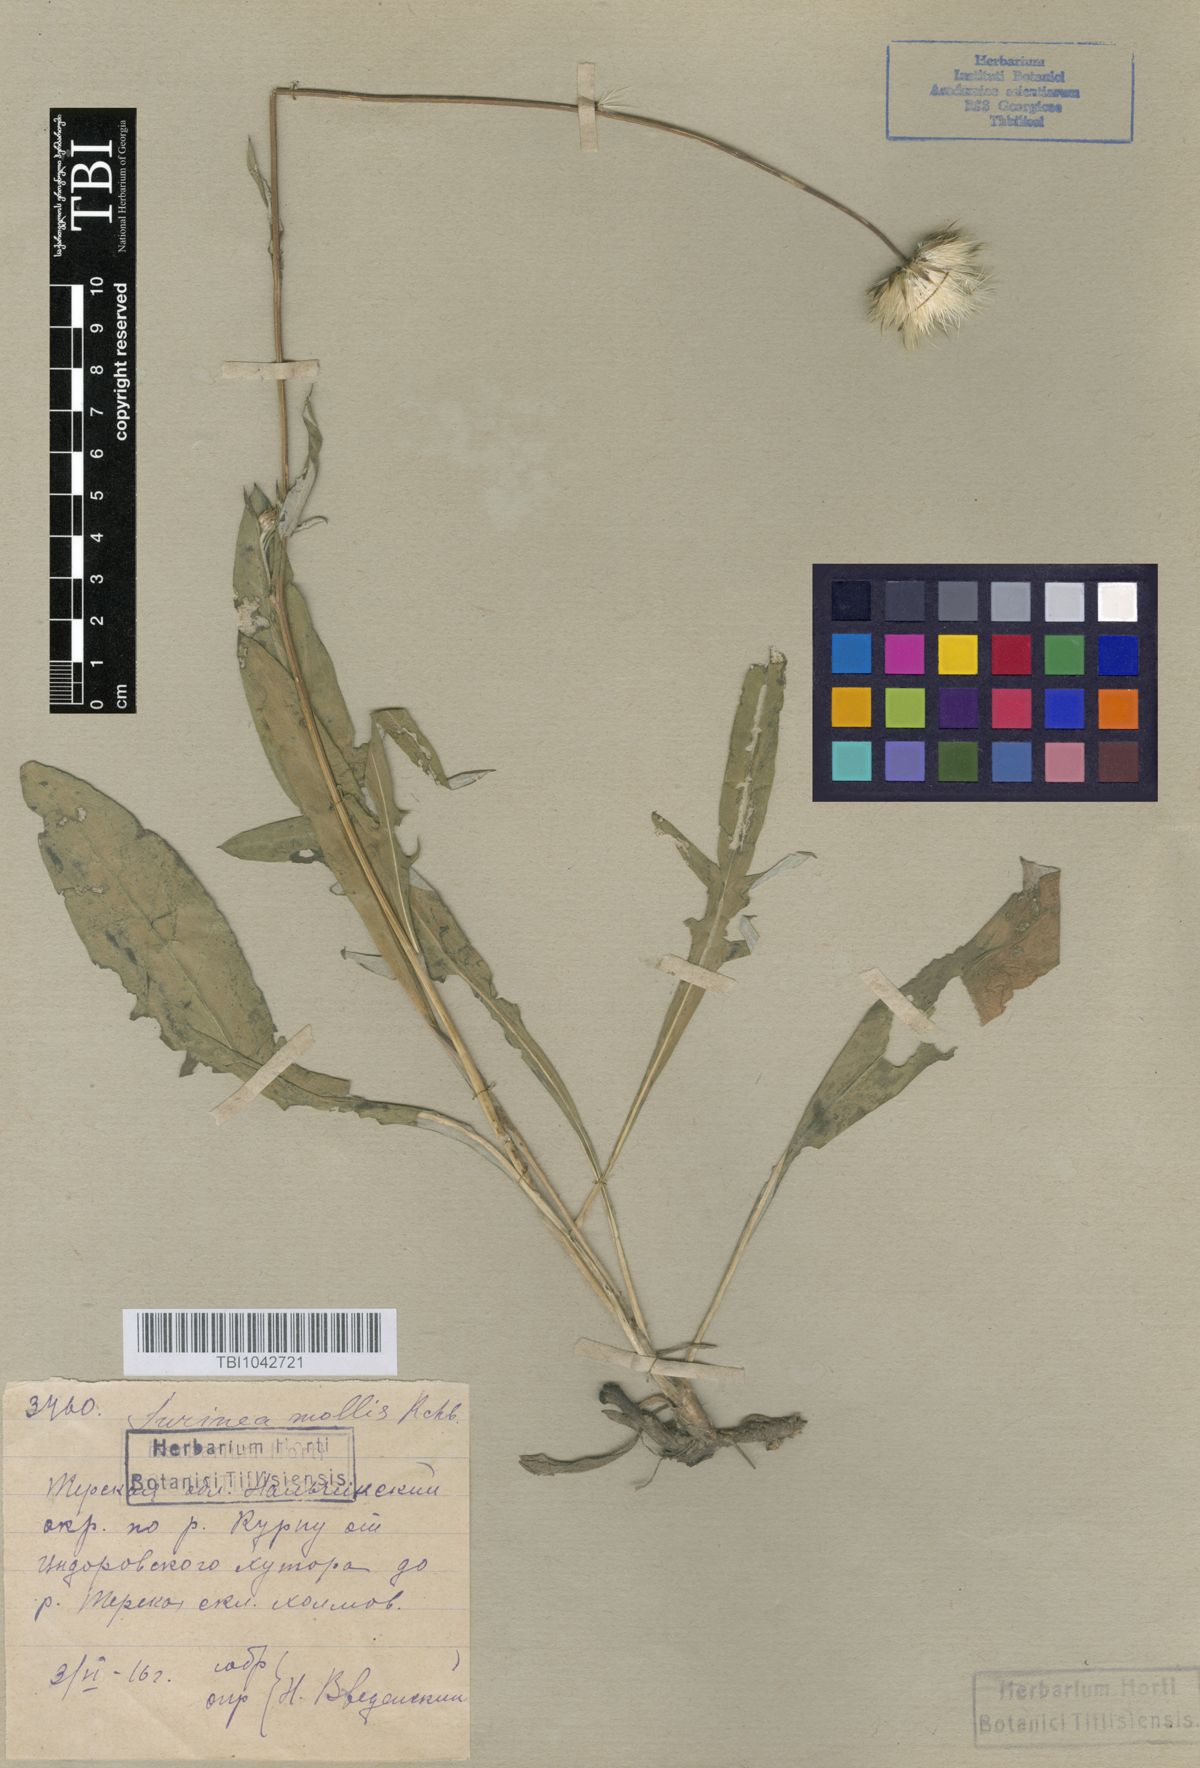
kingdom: Plantae
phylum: Tracheophyta
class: Magnoliopsida
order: Asterales
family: Asteraceae
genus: Jurinea
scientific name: Jurinea mollis
